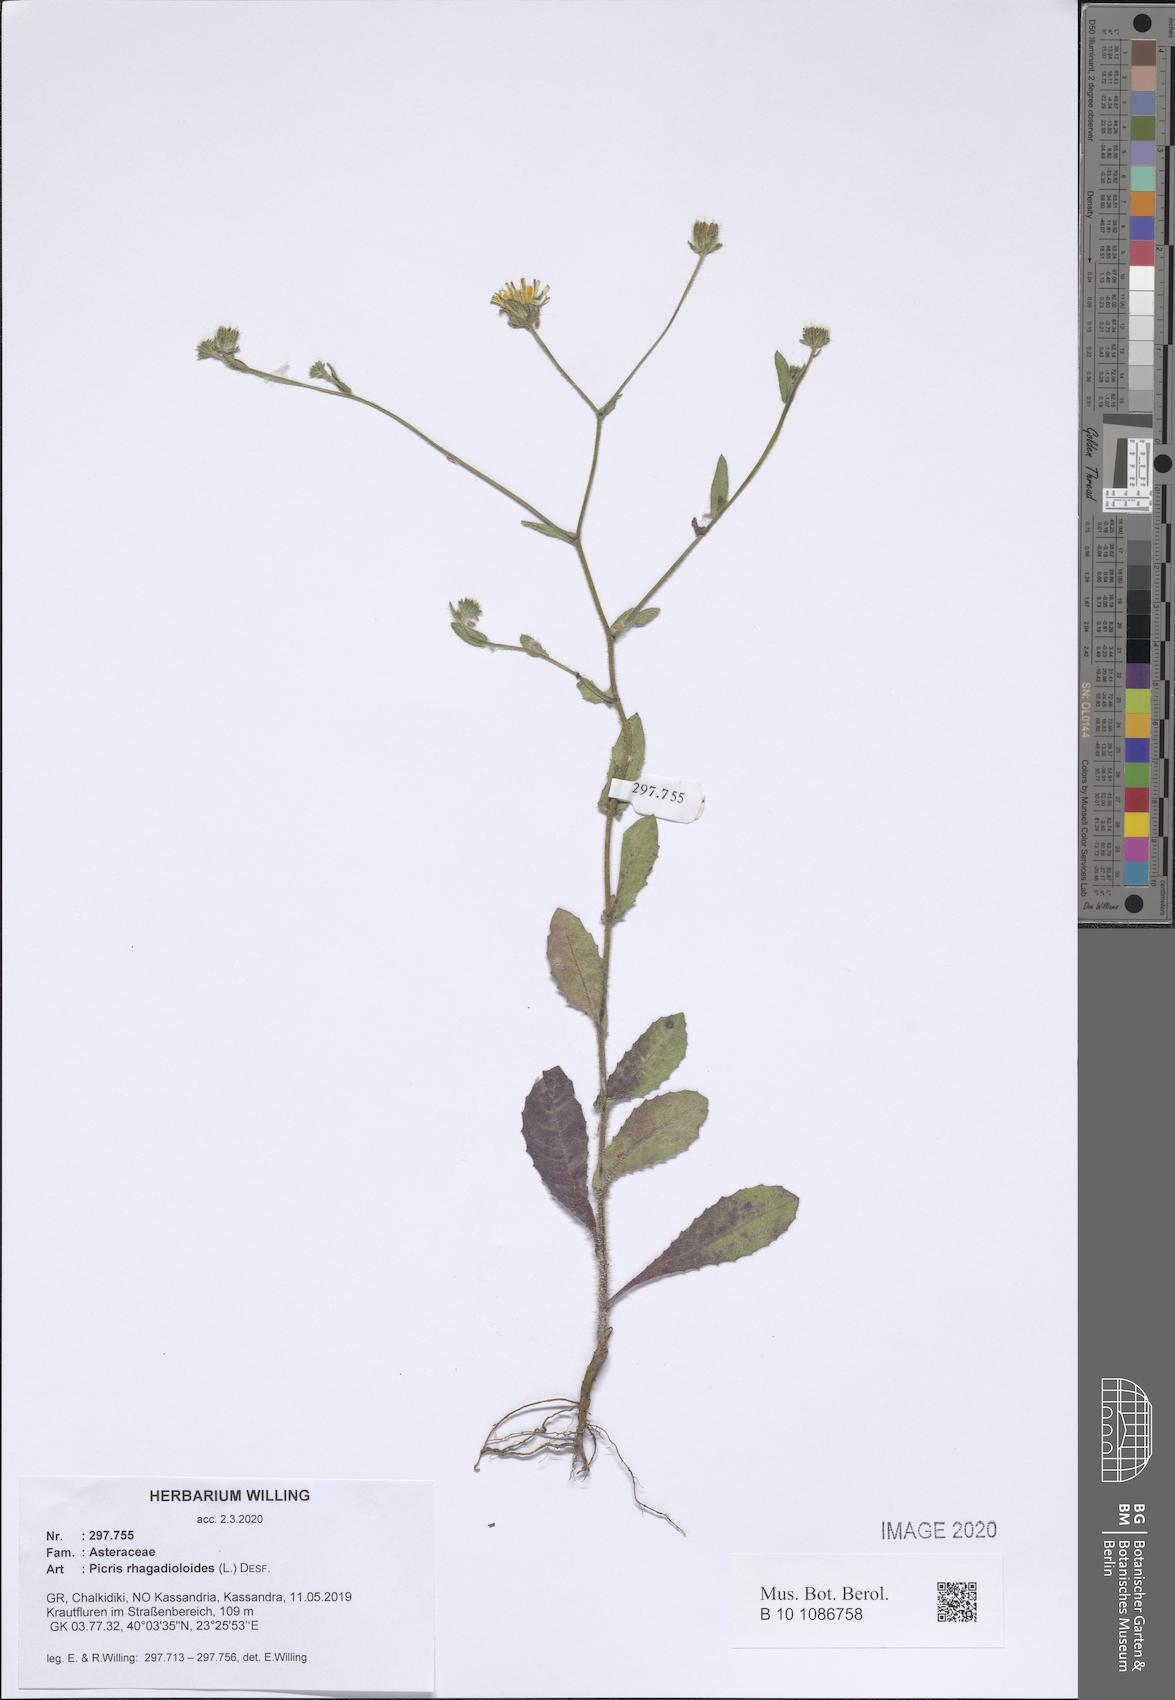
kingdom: Plantae
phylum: Tracheophyta
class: Magnoliopsida
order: Asterales
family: Asteraceae
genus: Picris
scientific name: Picris rhagadioloides
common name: Oxtongue
